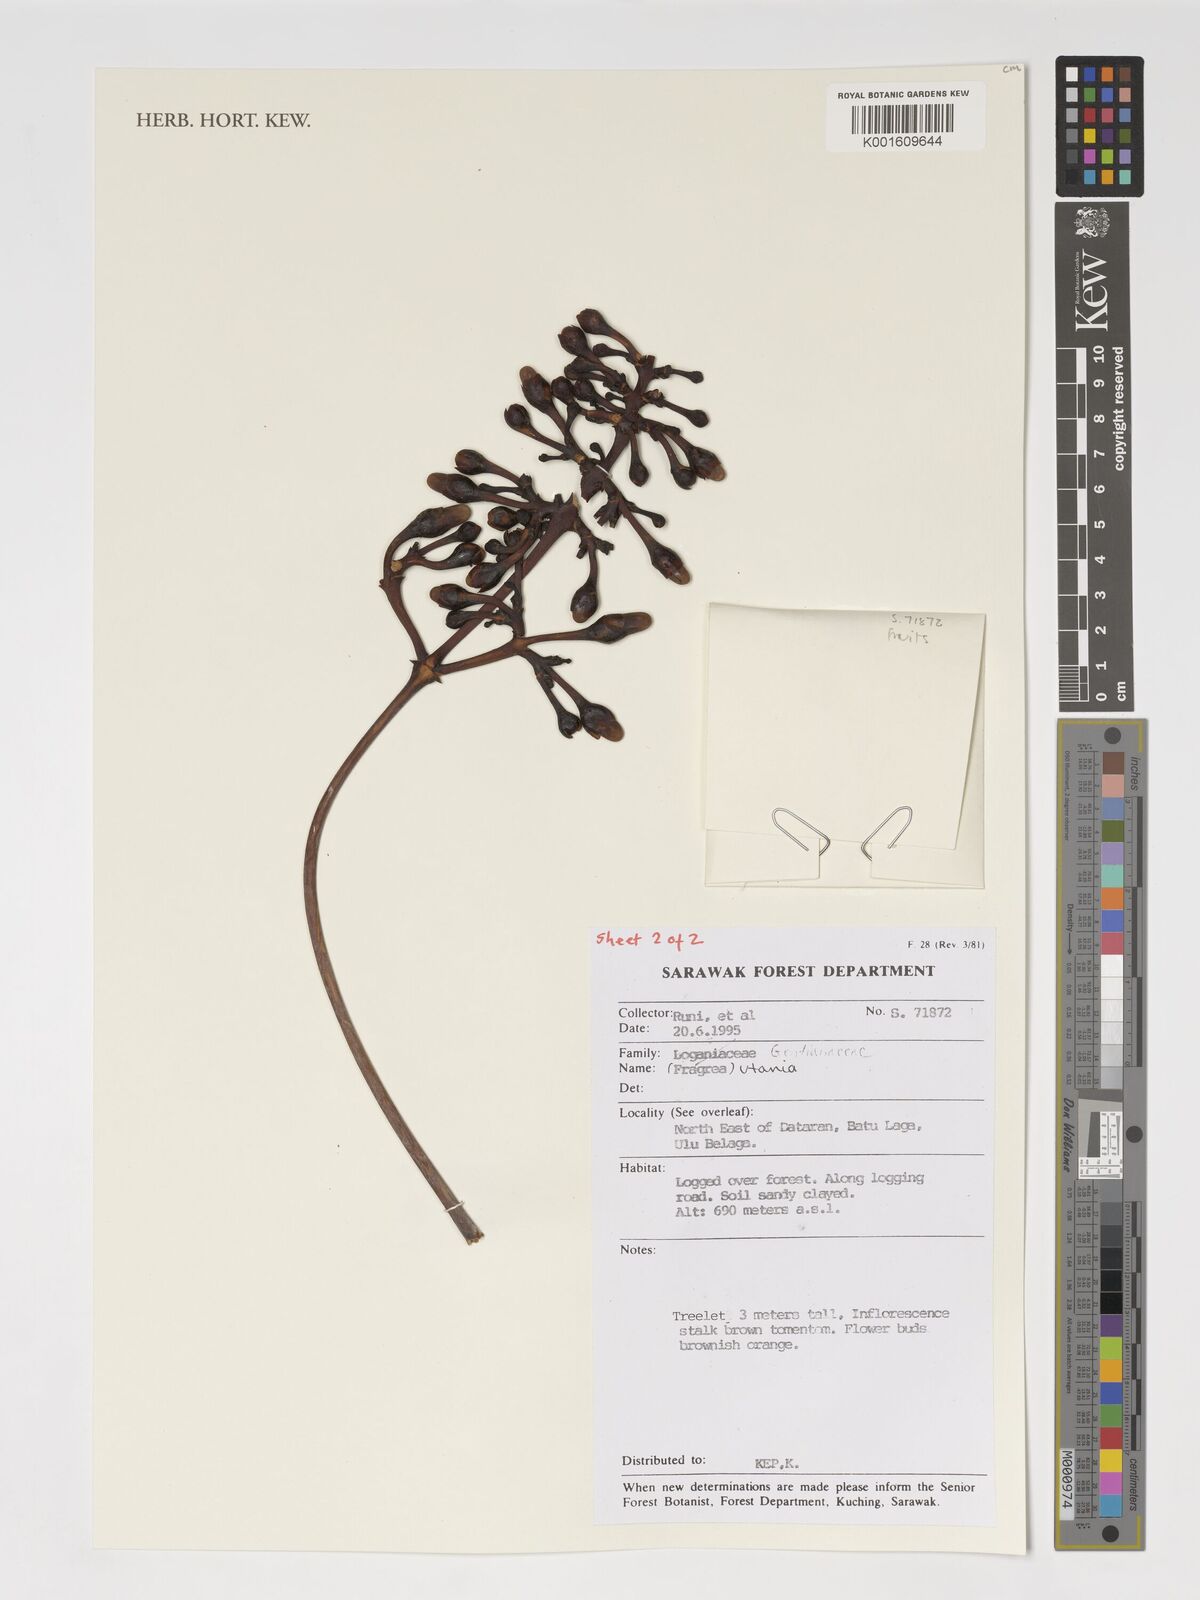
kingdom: Plantae
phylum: Tracheophyta
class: Magnoliopsida
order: Gentianales
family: Gentianaceae
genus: Utania
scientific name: Utania
